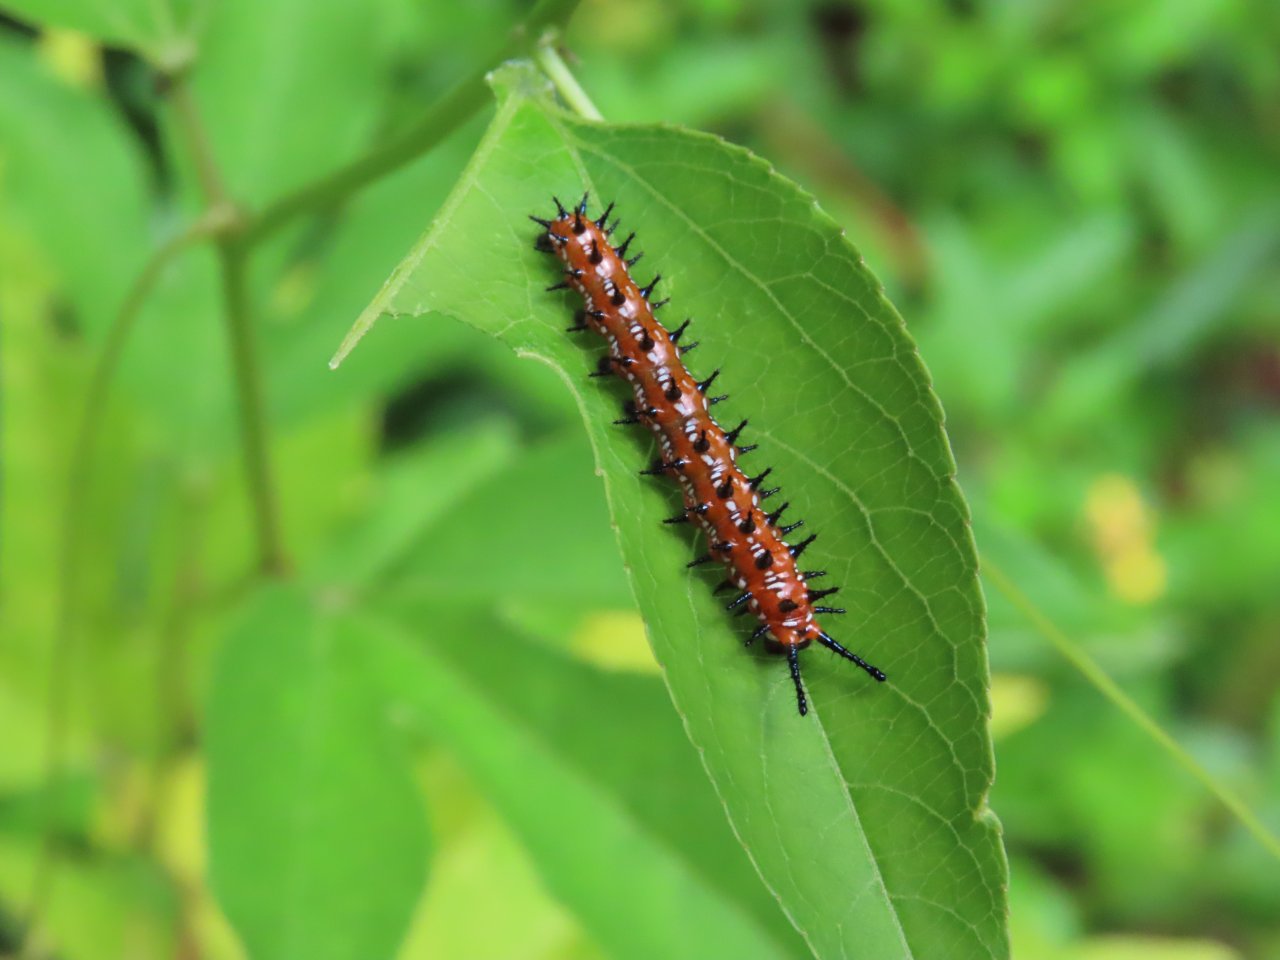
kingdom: Animalia
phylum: Arthropoda
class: Insecta
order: Lepidoptera
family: Nymphalidae
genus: Euptoieta
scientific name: Euptoieta claudia
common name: Variegated Fritillary
